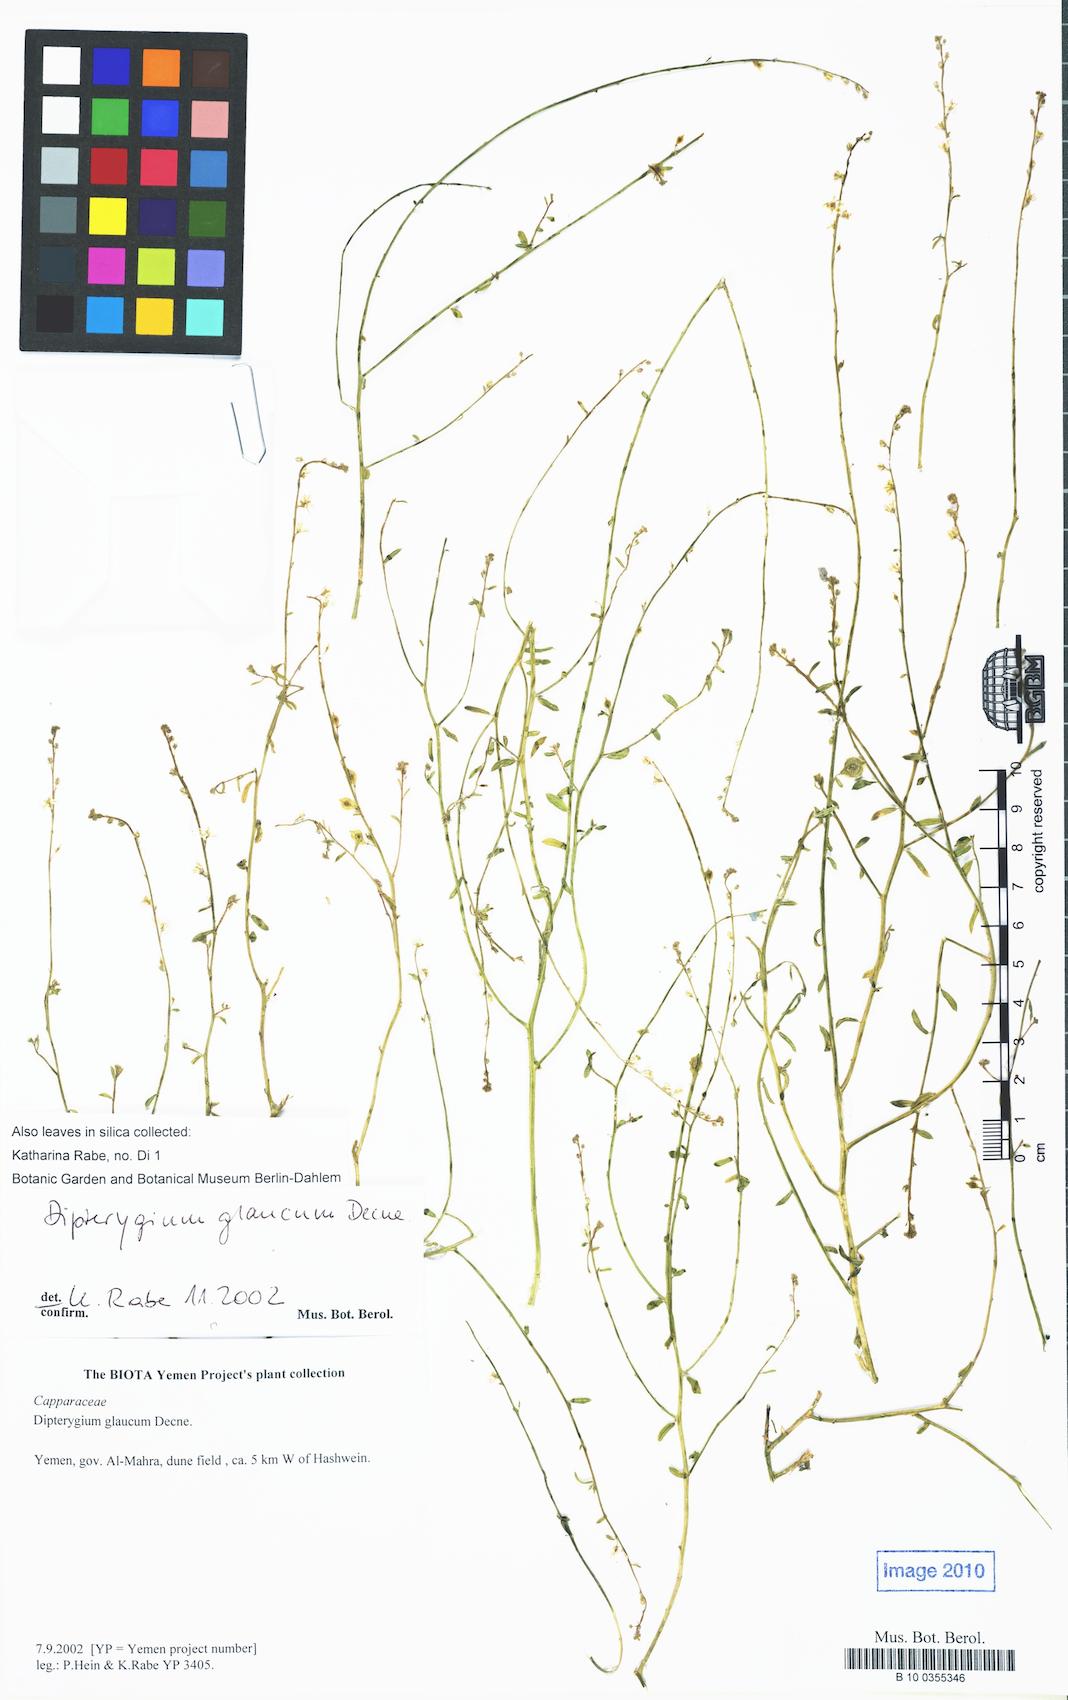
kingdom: Plantae
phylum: Tracheophyta
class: Magnoliopsida
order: Brassicales
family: Cleomaceae
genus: Dipterygium
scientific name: Dipterygium glaucum
